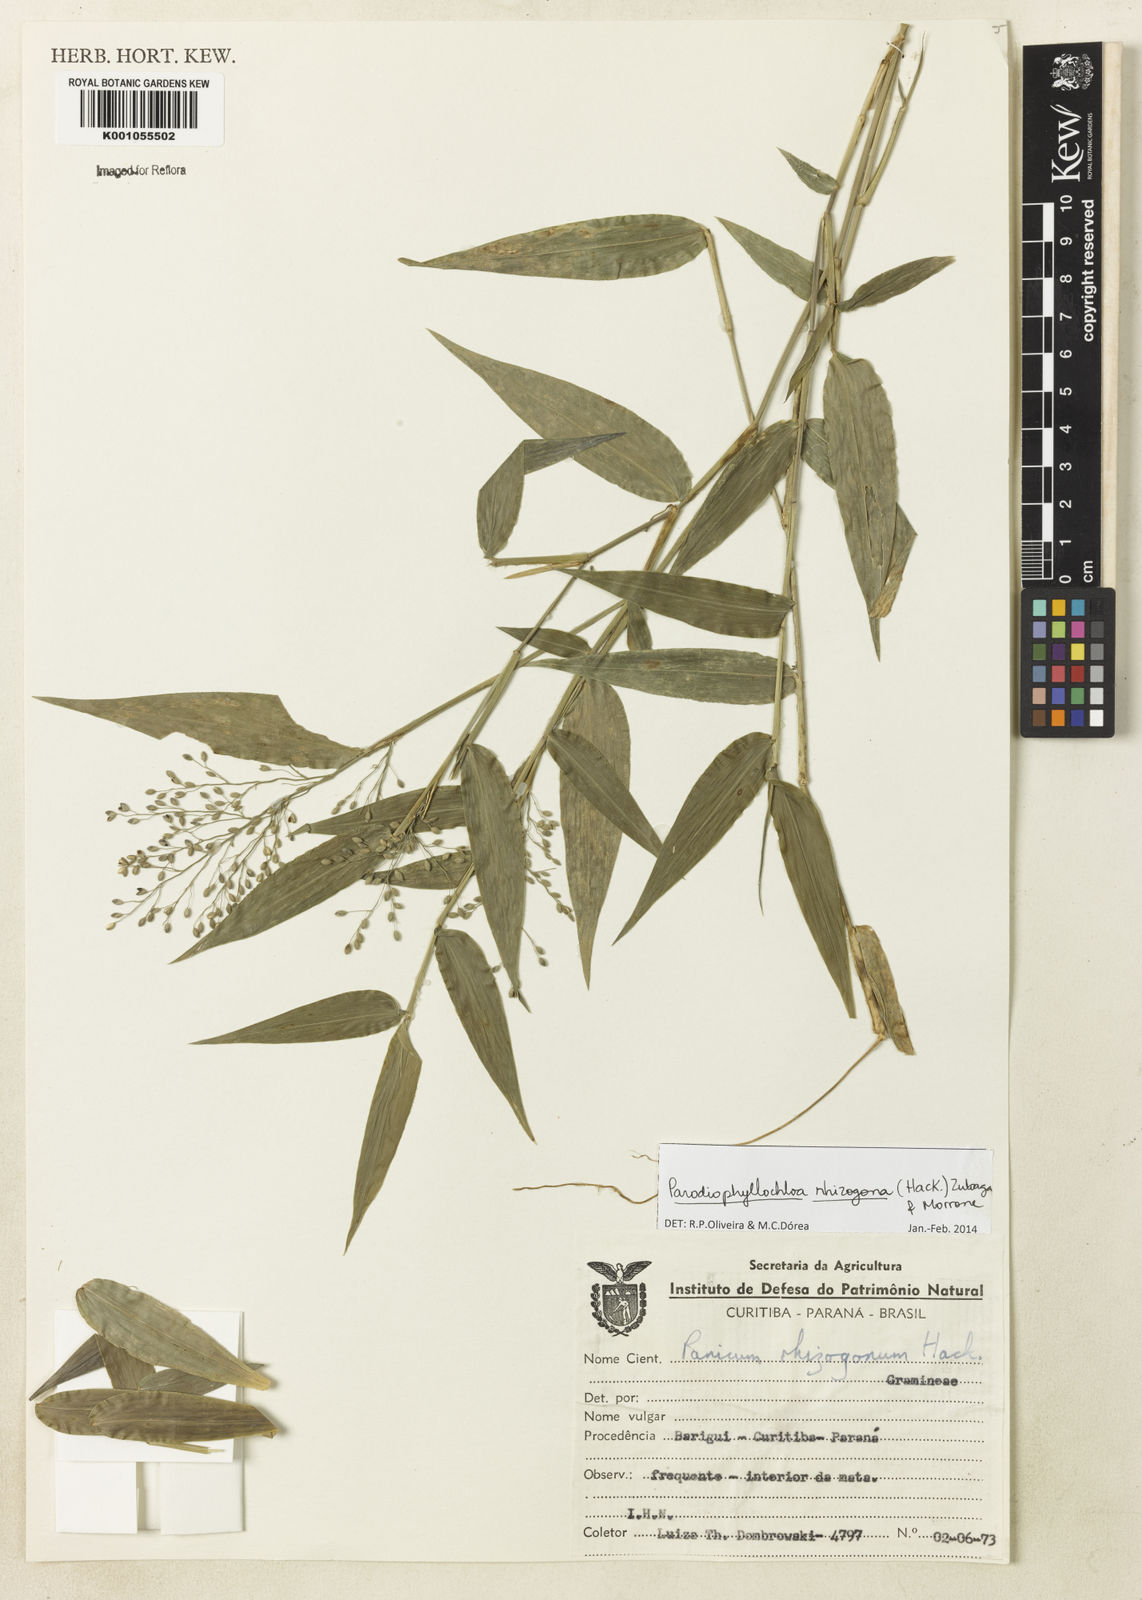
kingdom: Plantae
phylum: Tracheophyta
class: Liliopsida
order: Poales
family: Poaceae
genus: Parodiophyllochloa
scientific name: Parodiophyllochloa rhizogona
